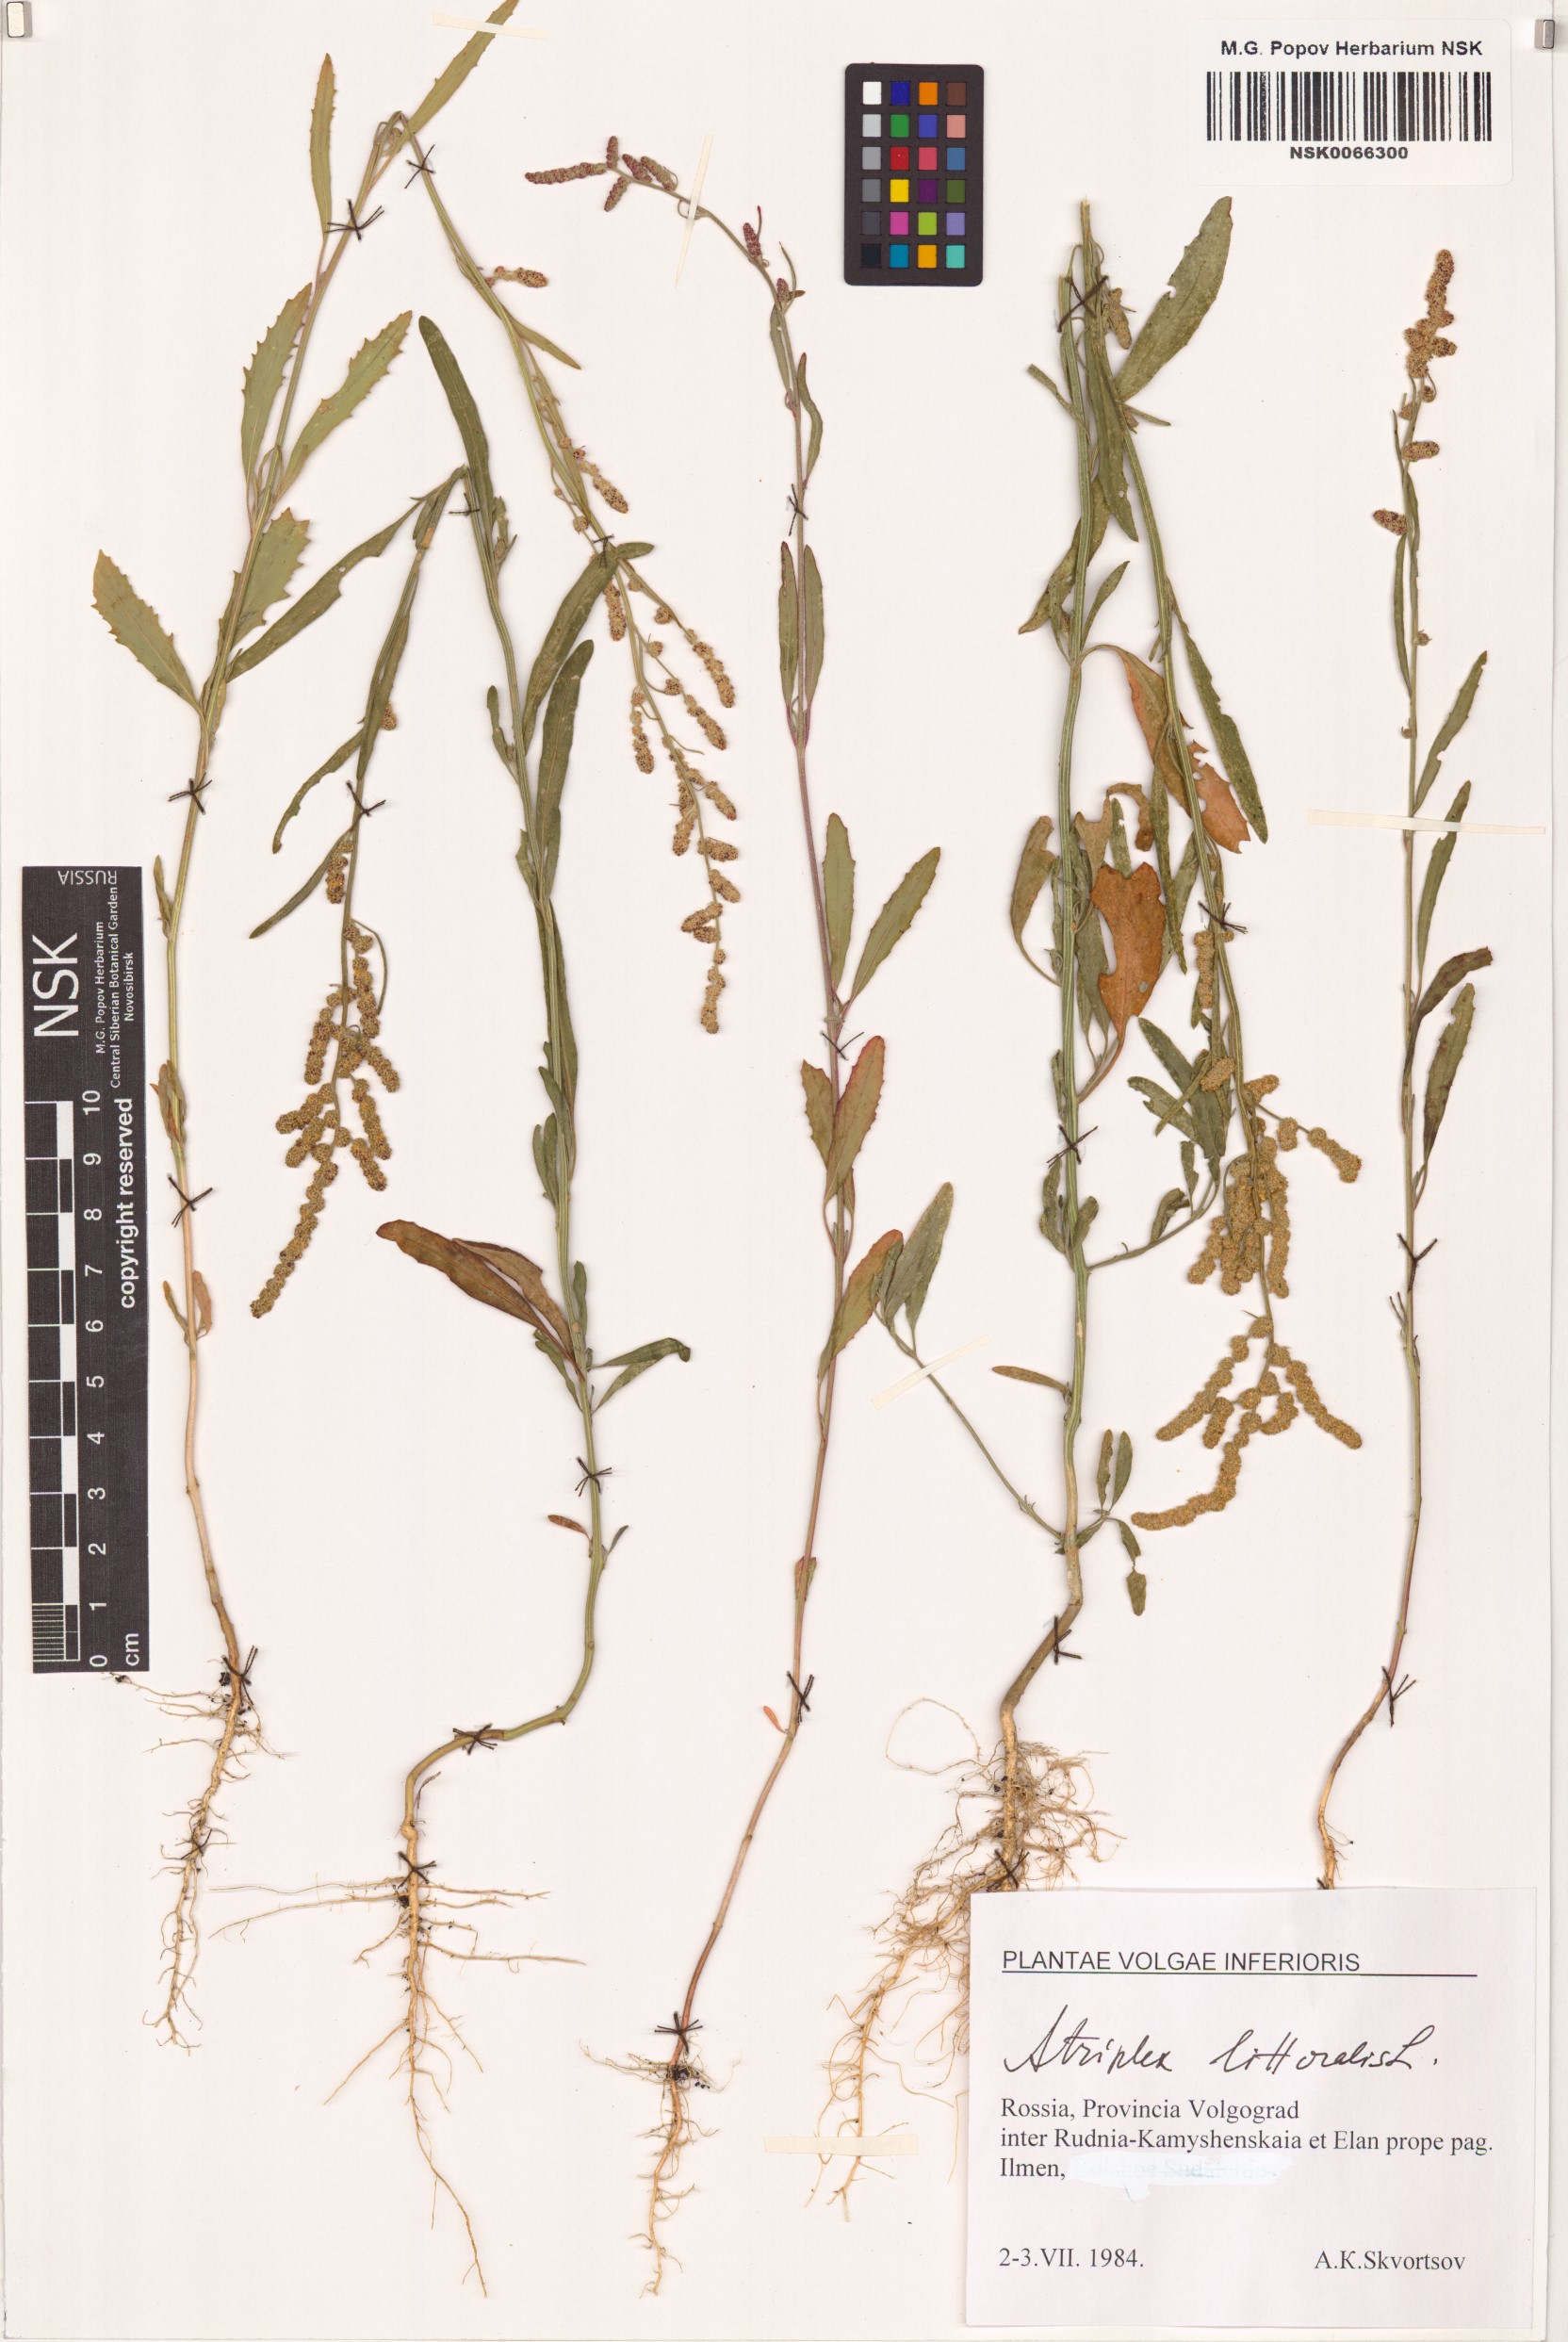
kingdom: Plantae
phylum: Tracheophyta
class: Magnoliopsida
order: Caryophyllales
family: Amaranthaceae
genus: Atriplex
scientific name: Atriplex littoralis
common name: Grass-leaved orache
